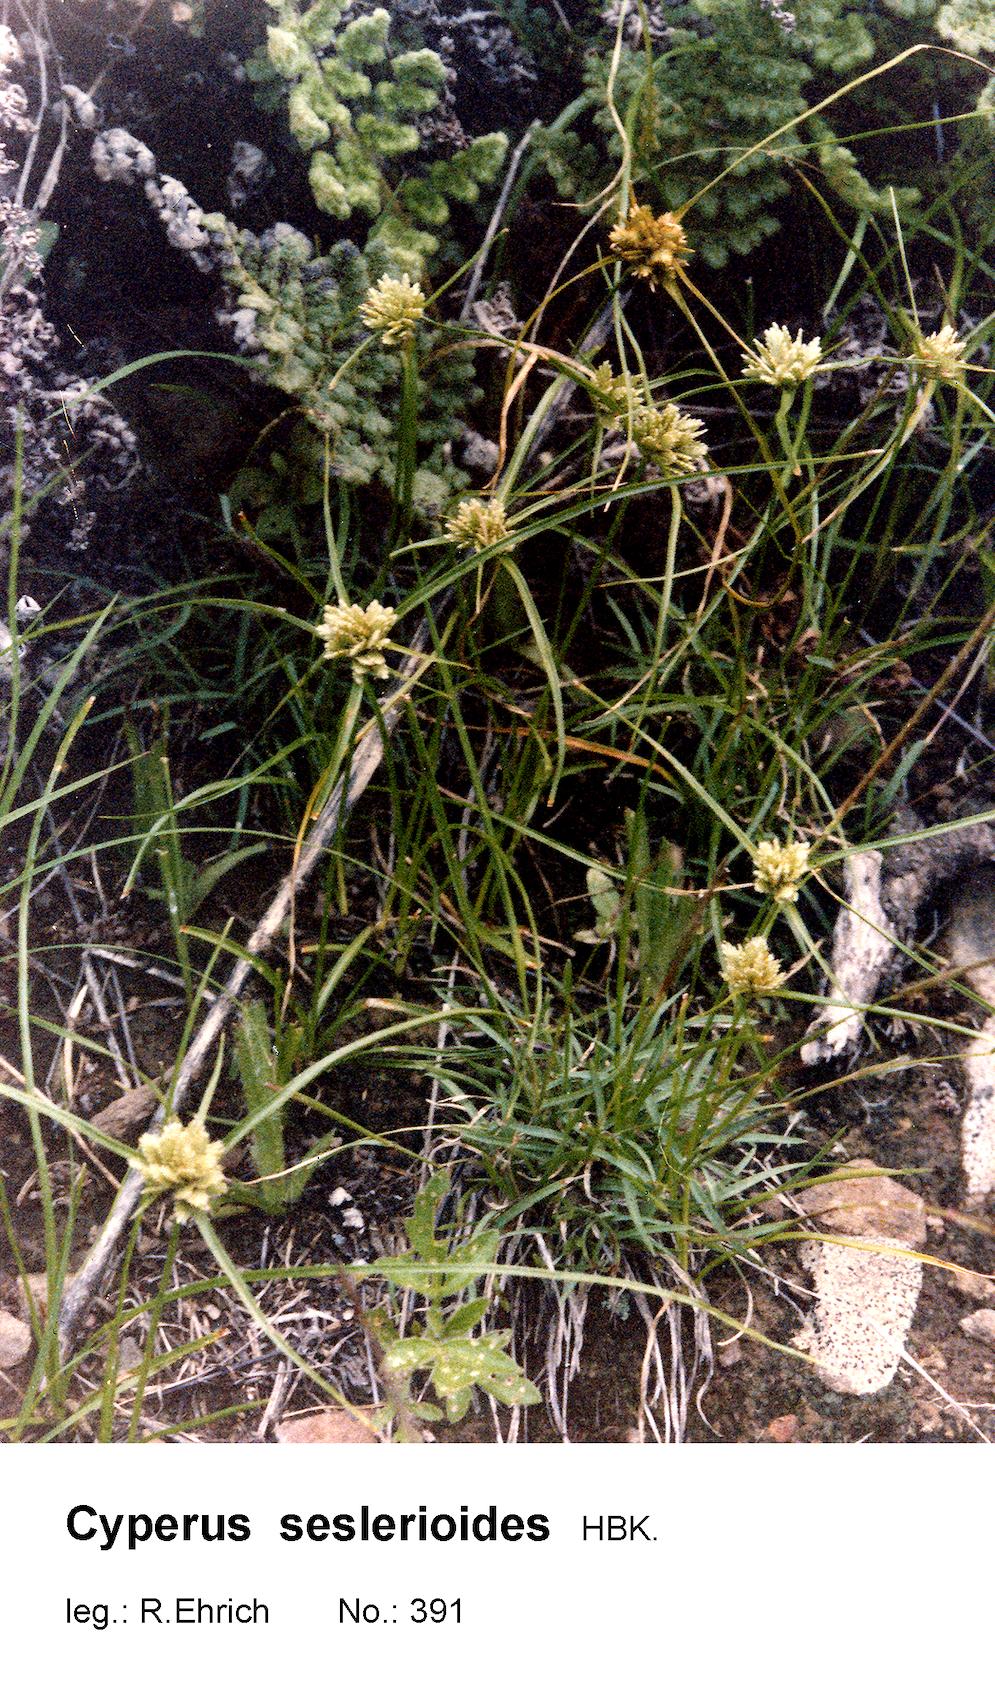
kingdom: Plantae
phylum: Tracheophyta
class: Liliopsida
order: Poales
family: Cyperaceae
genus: Cyperus
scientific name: Cyperus seslerioides
